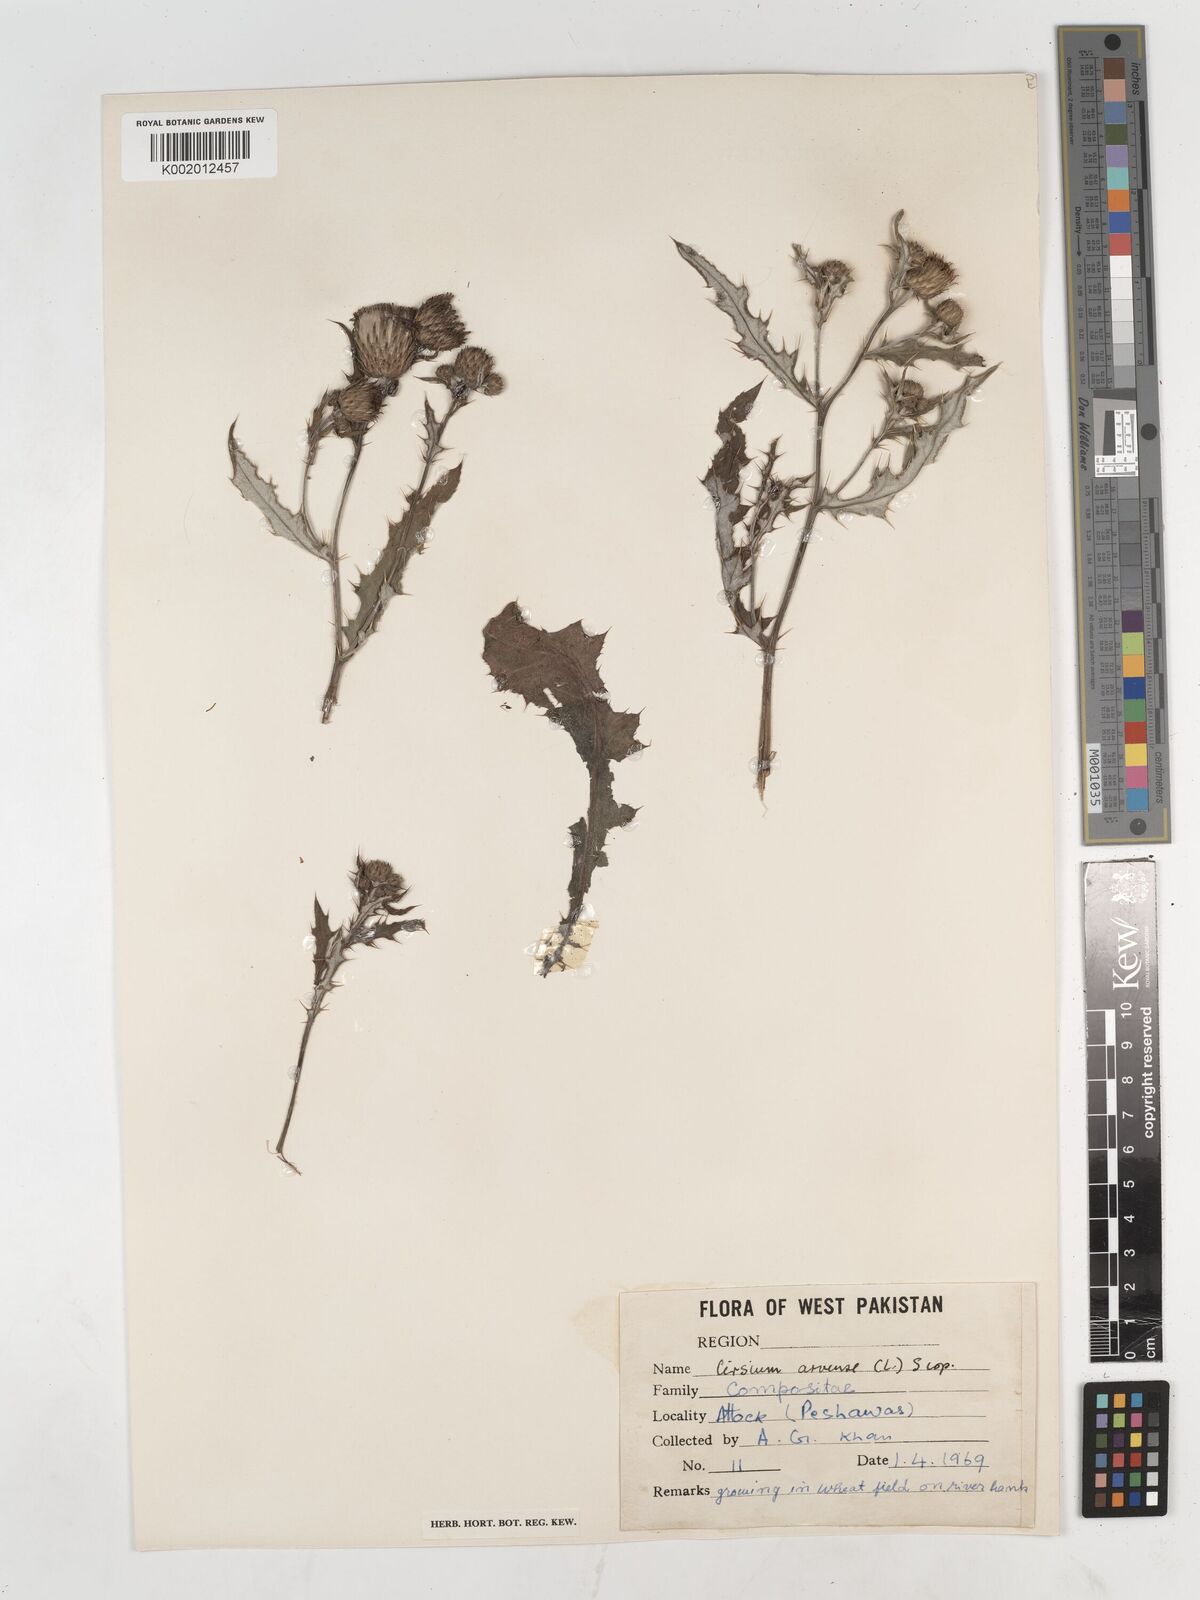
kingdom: Plantae
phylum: Tracheophyta
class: Magnoliopsida
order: Asterales
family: Asteraceae
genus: Cirsium
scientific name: Cirsium arvense
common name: Creeping thistle
